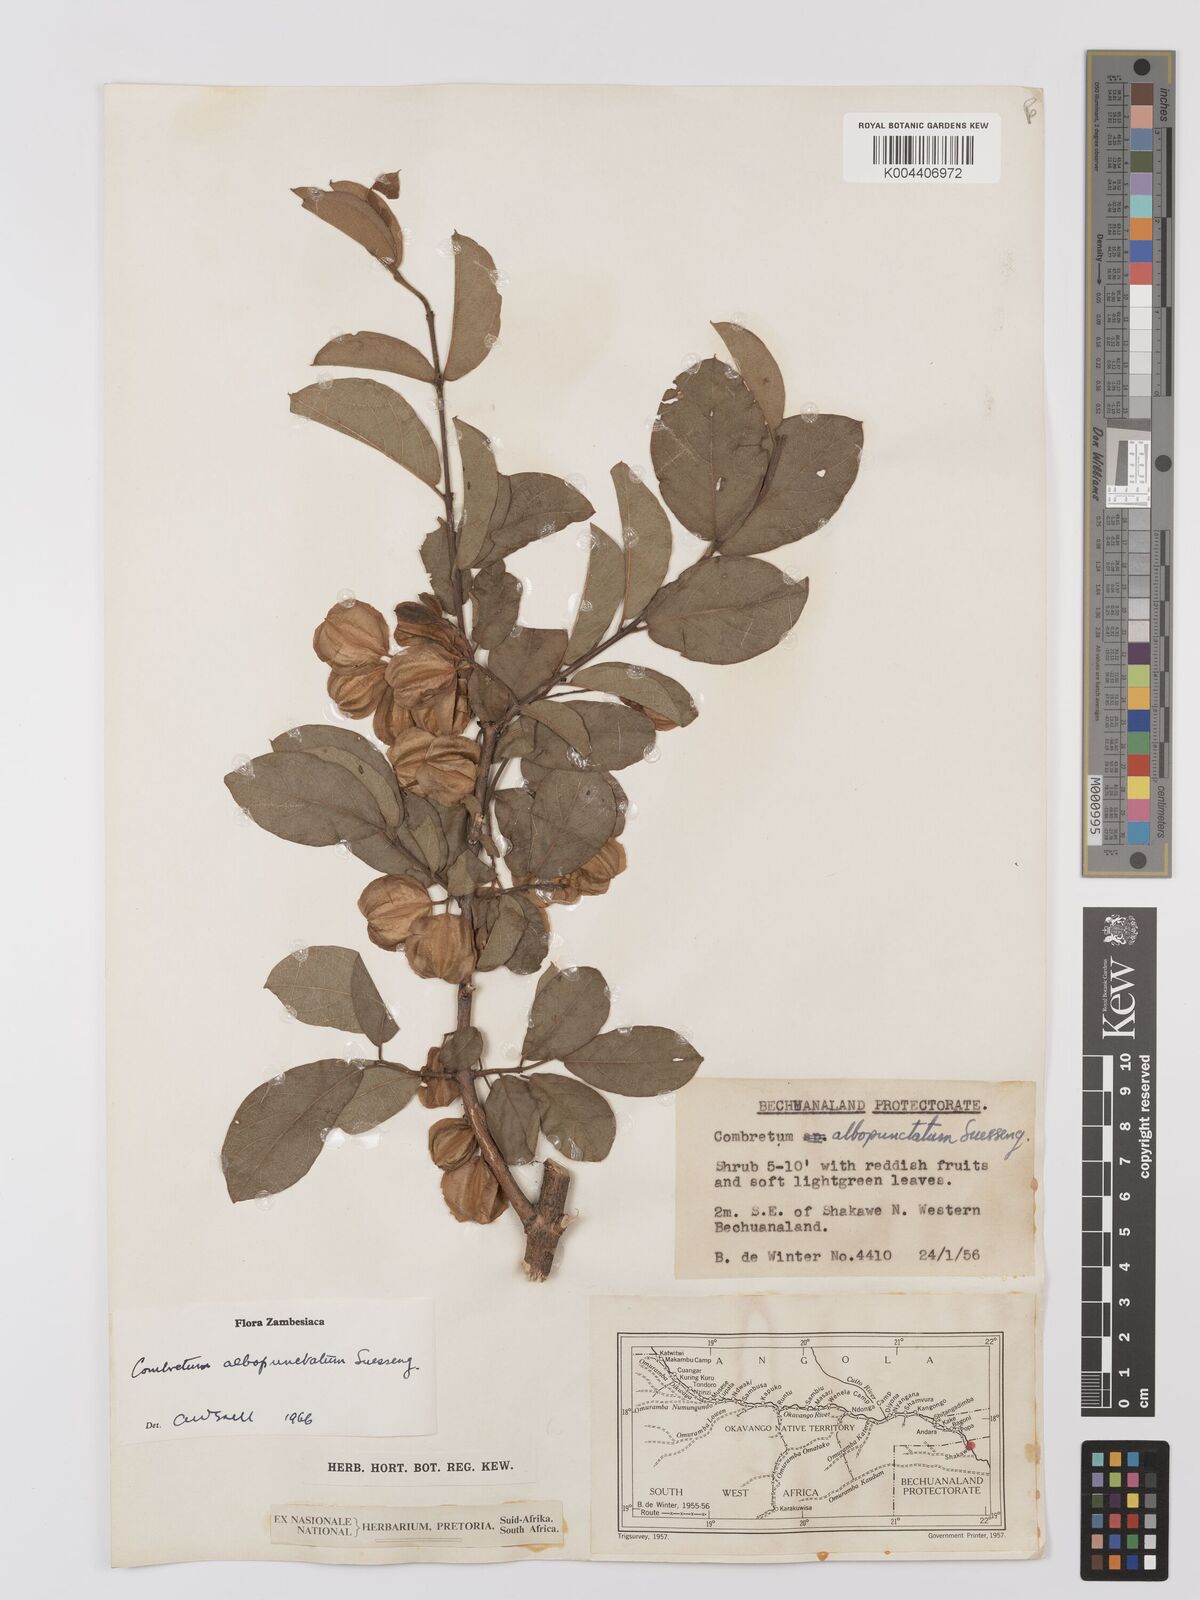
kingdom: Plantae
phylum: Tracheophyta
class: Magnoliopsida
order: Myrtales
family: Combretaceae
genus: Combretum
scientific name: Combretum albopunctatum
